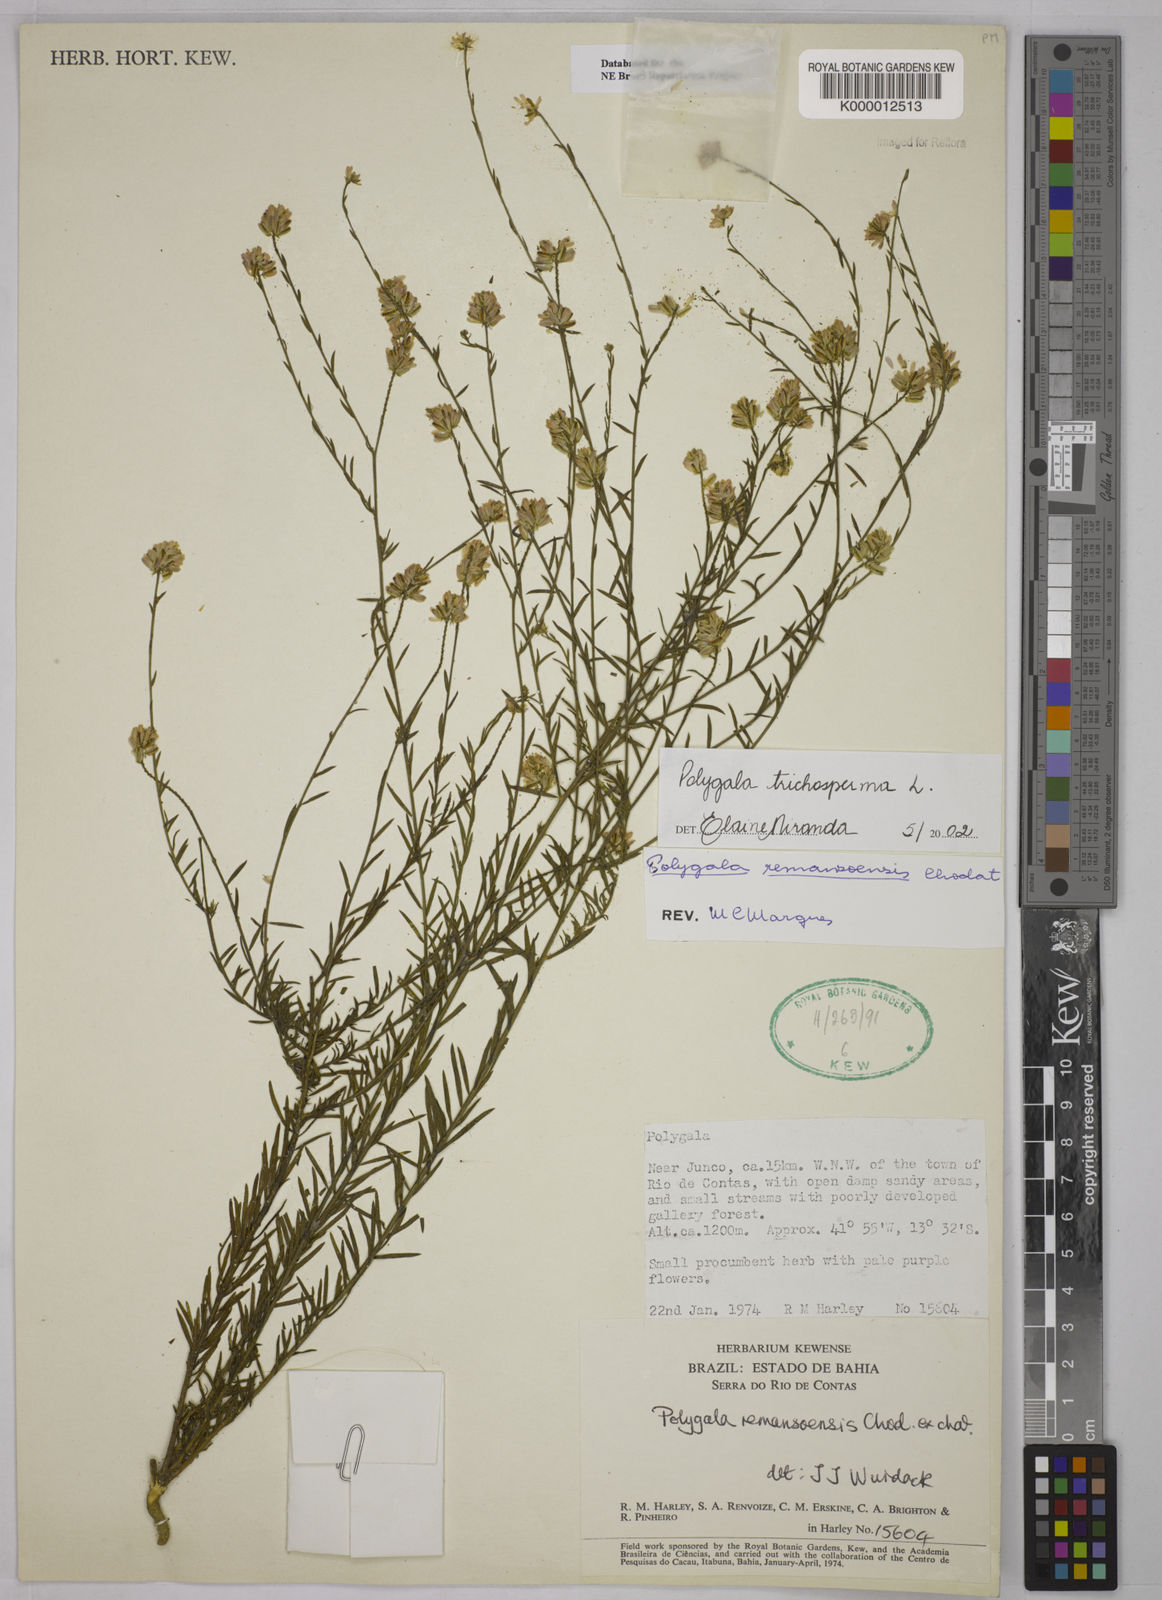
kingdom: Plantae
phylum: Tracheophyta
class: Magnoliopsida
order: Fabales
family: Polygalaceae
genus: Polygala
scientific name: Polygala
